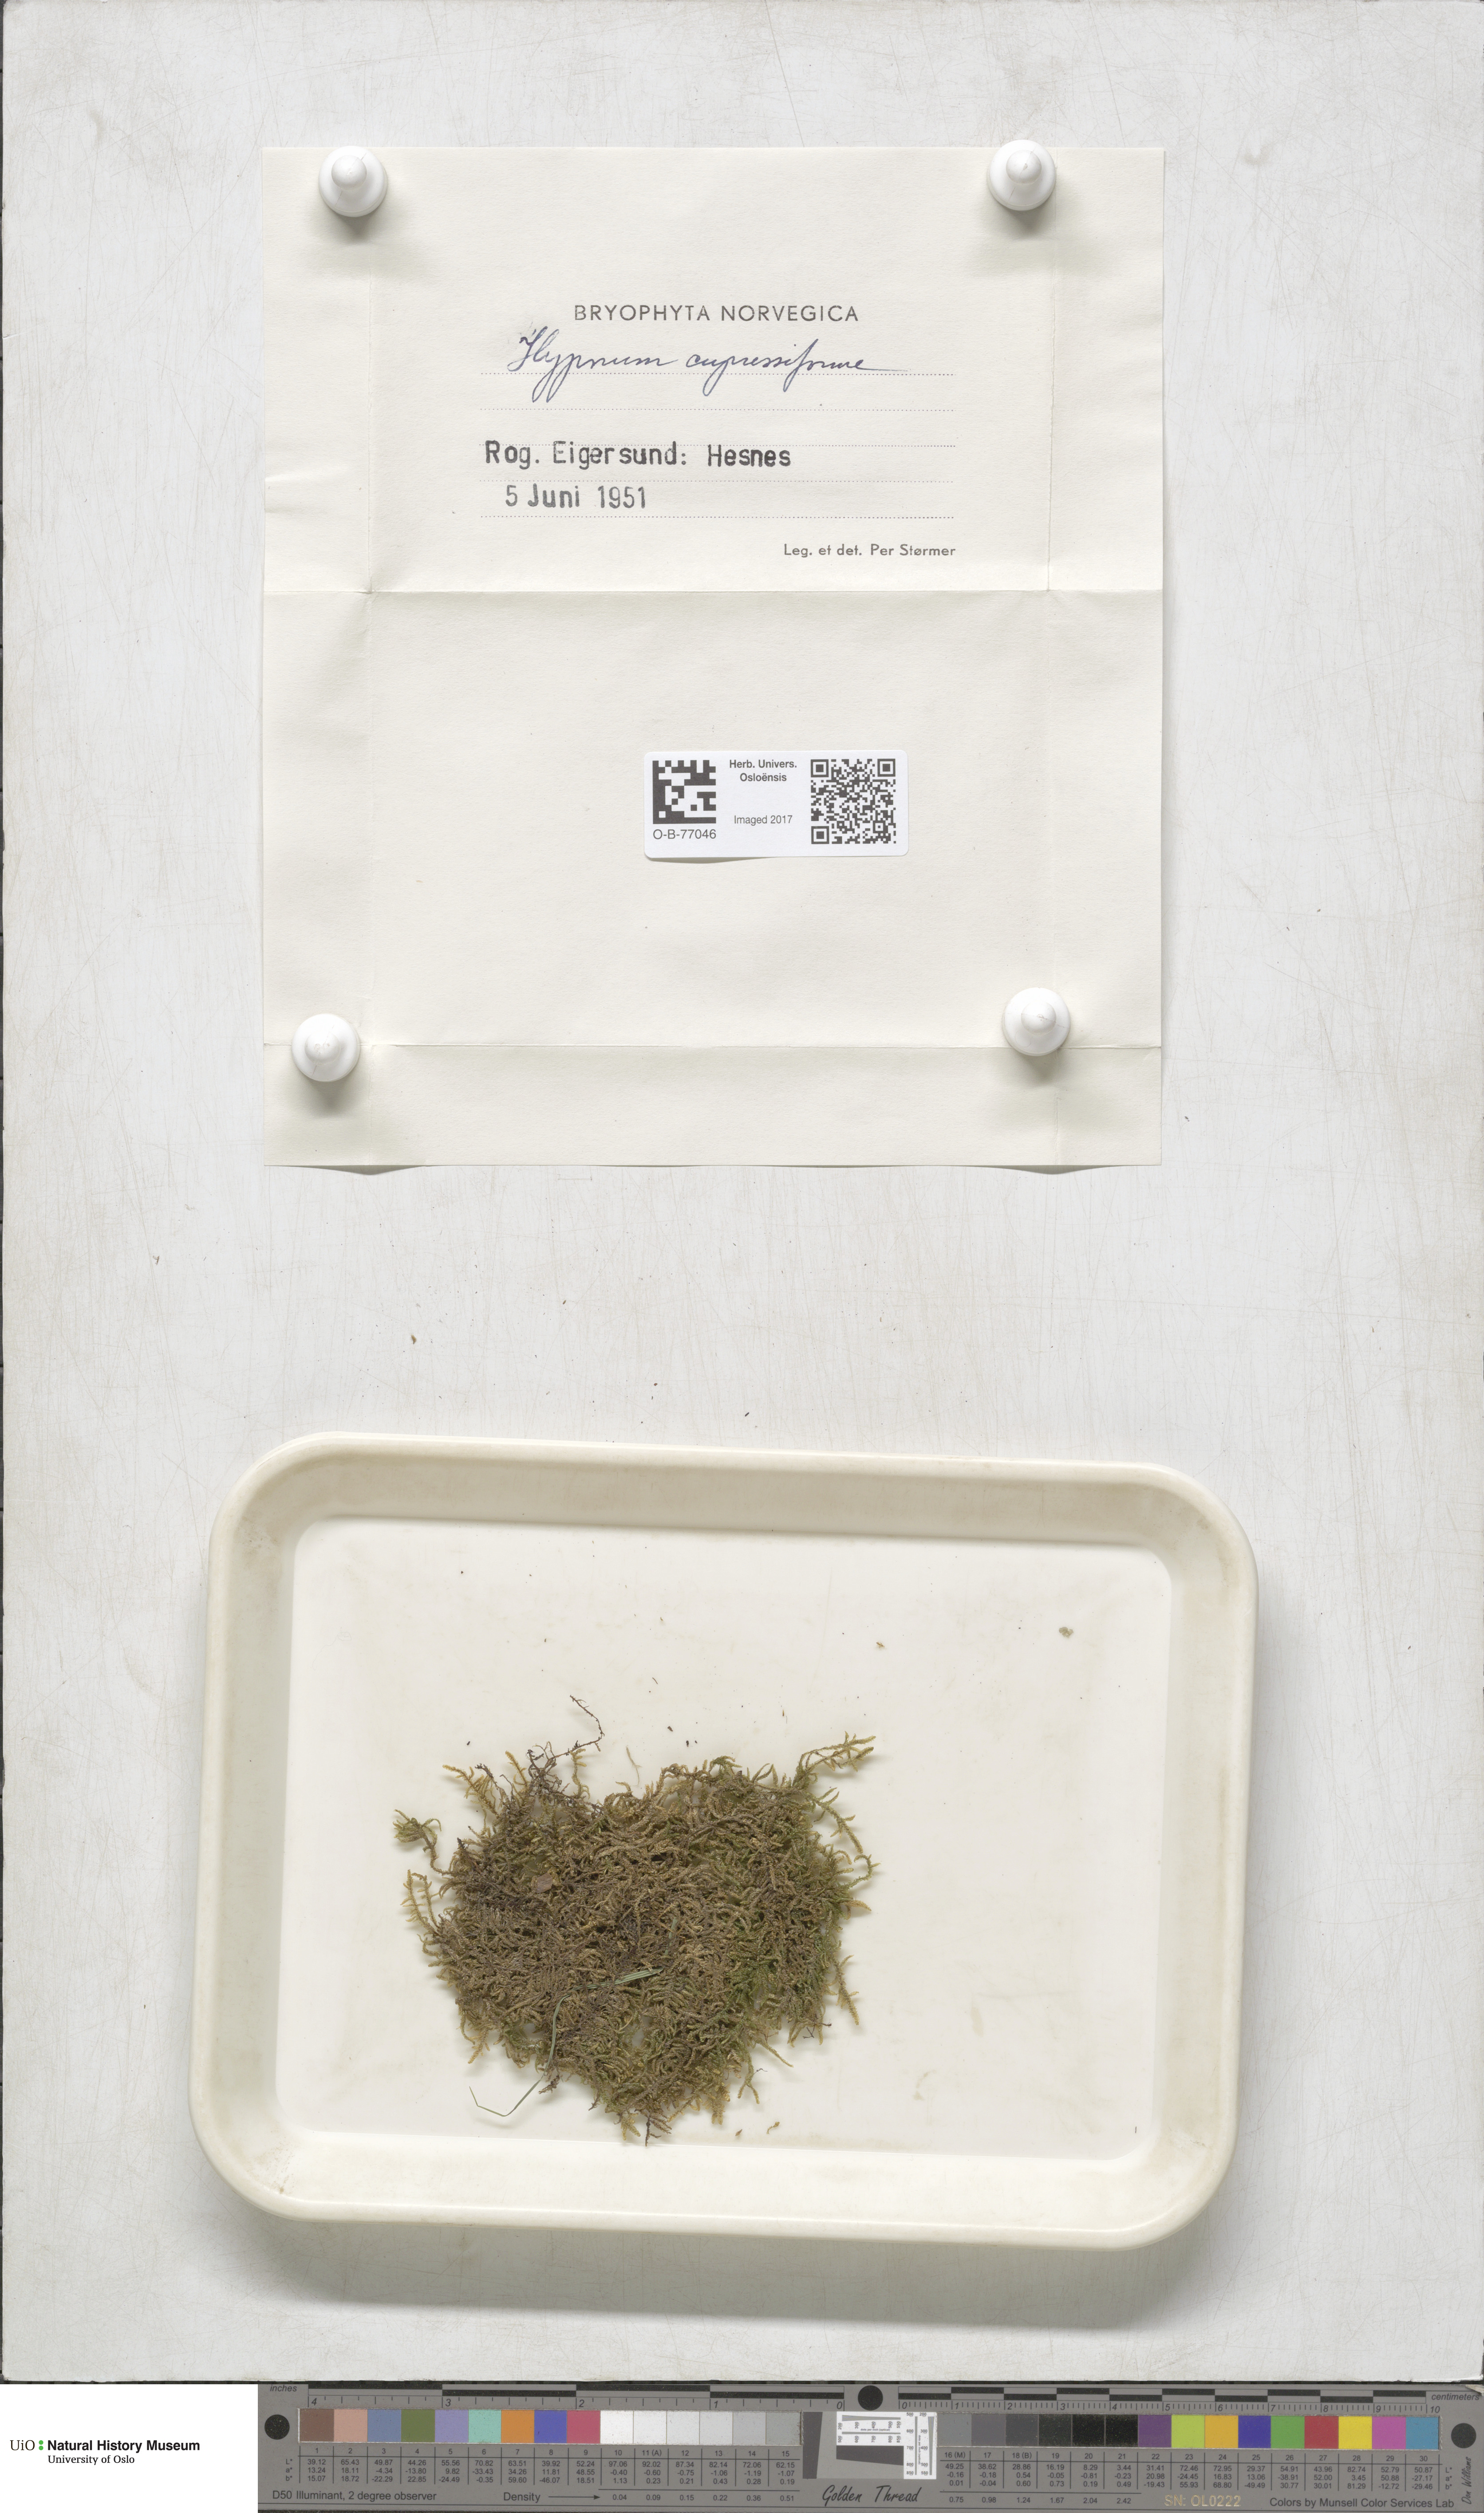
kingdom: Plantae
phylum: Bryophyta
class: Bryopsida
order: Hypnales
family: Hypnaceae
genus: Hypnum
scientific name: Hypnum cupressiforme
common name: Cypress-leaved plait-moss
